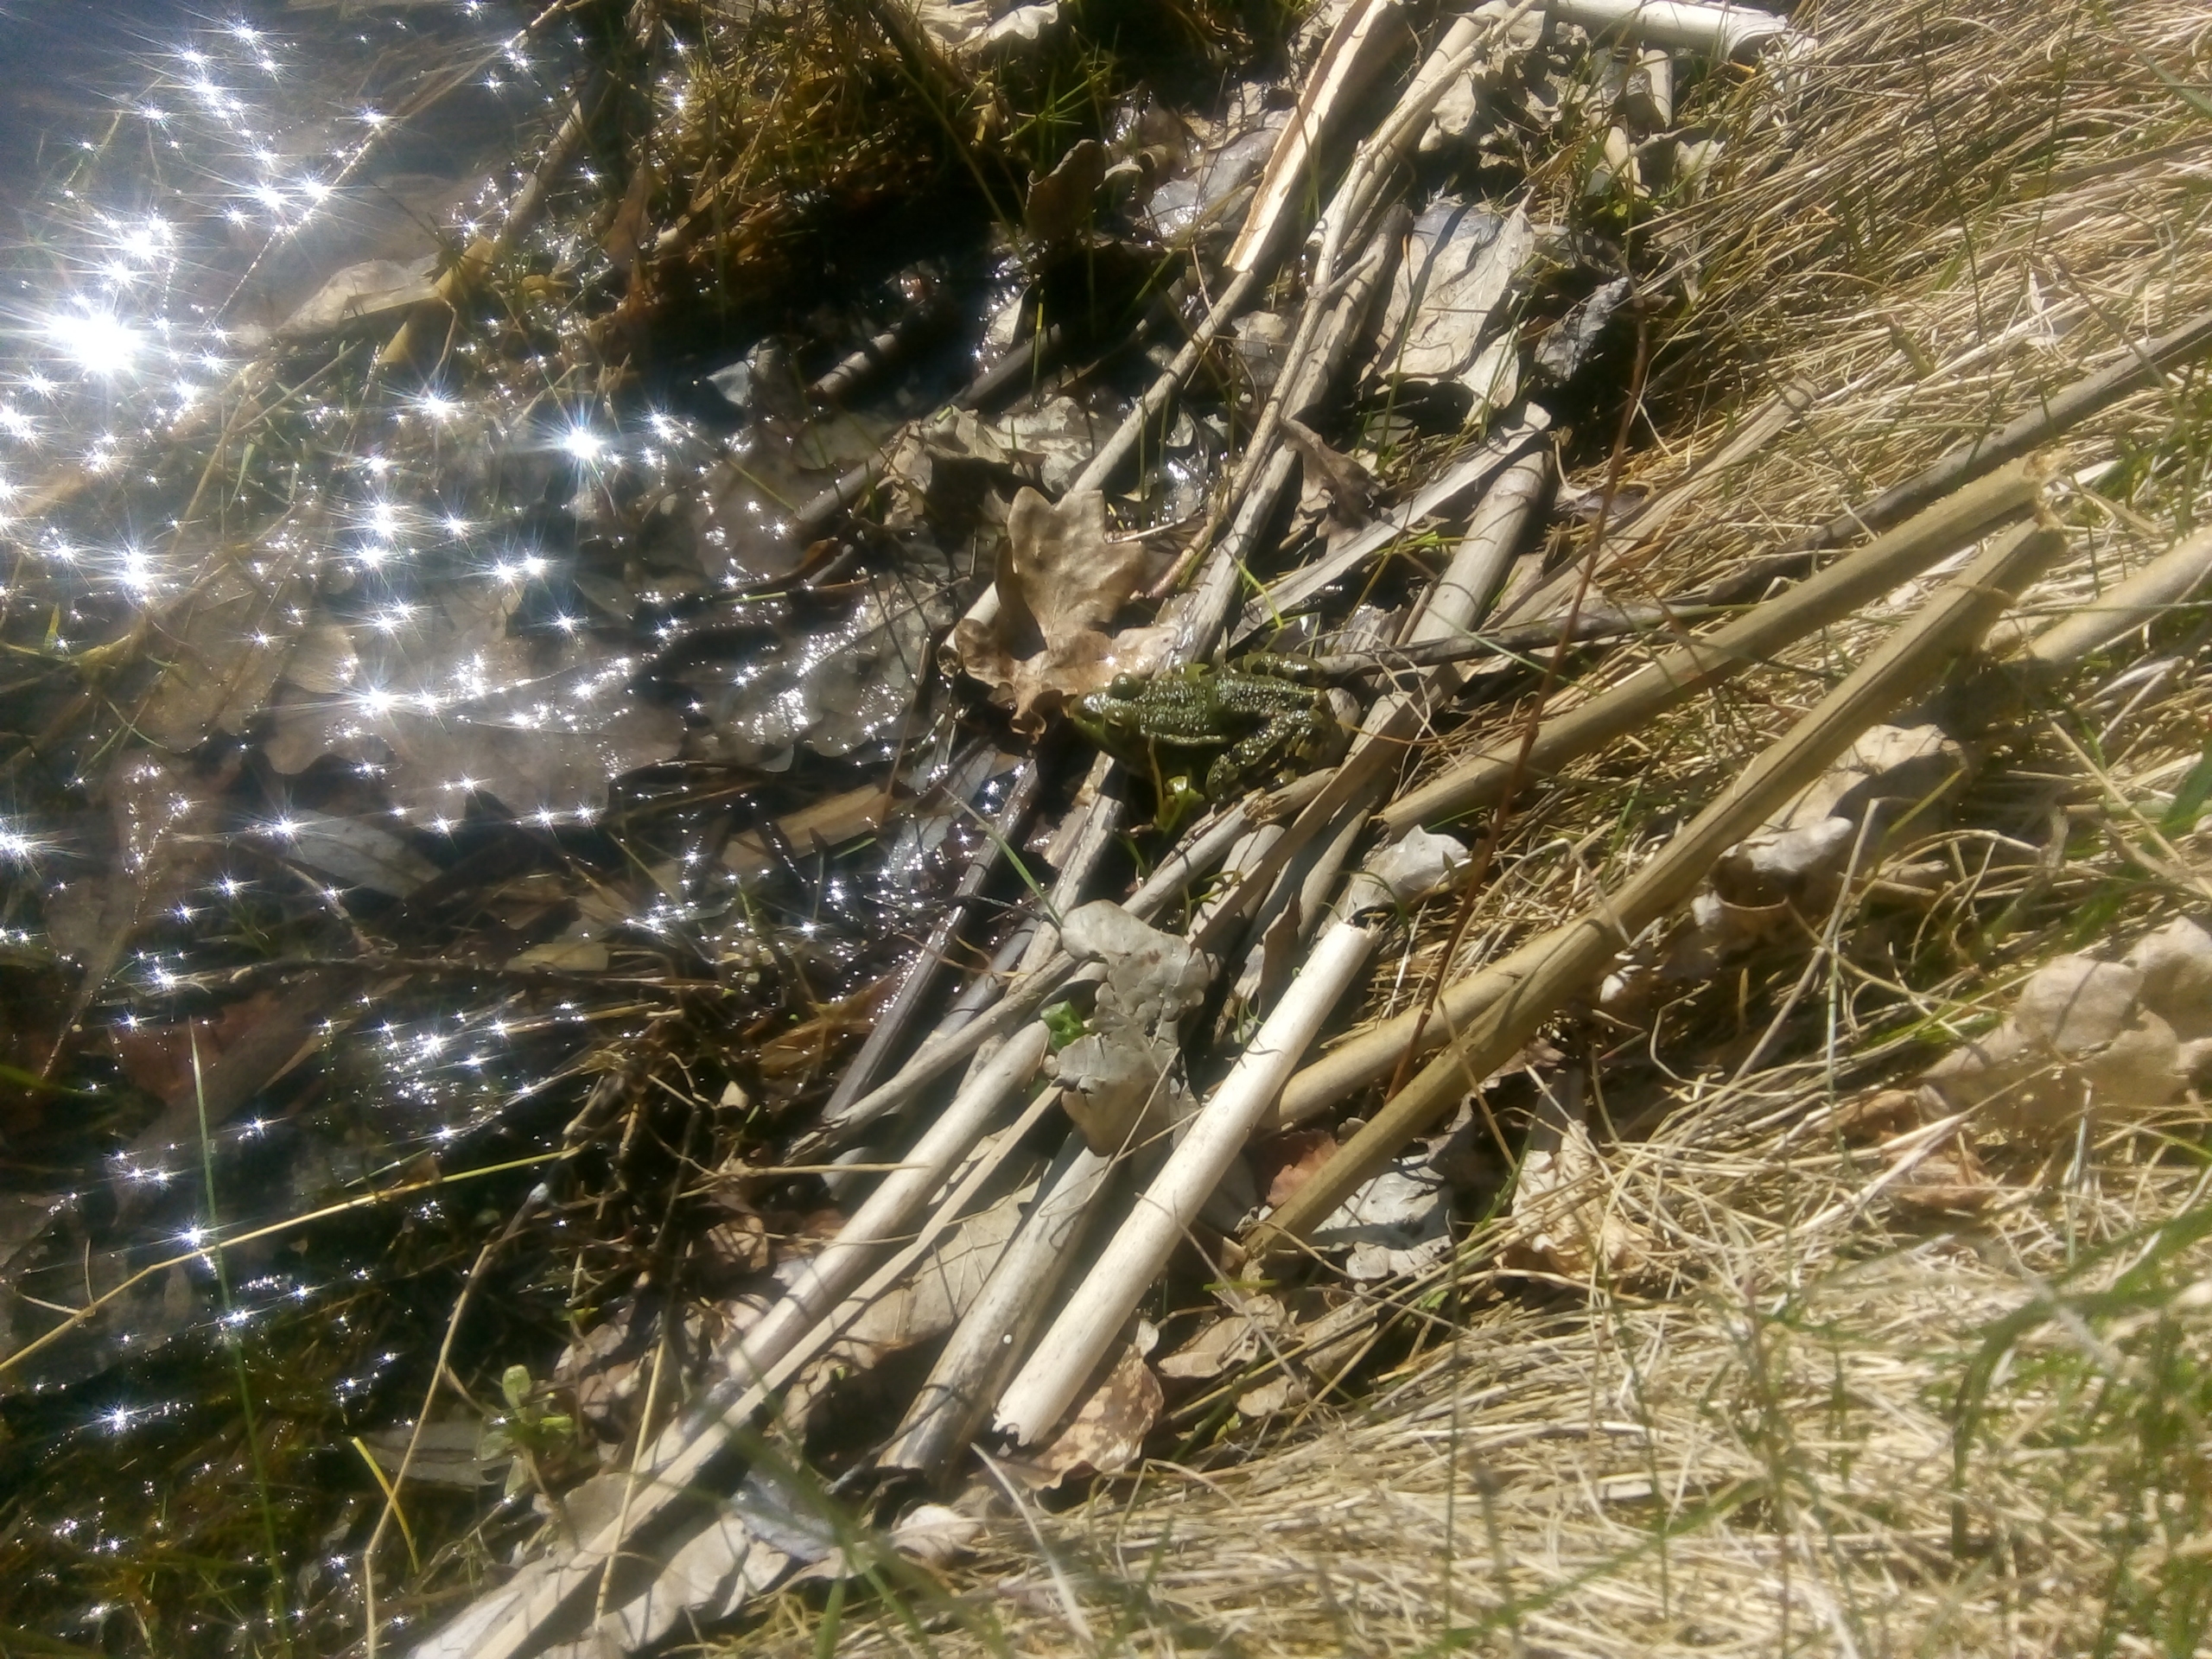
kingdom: Animalia
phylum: Chordata
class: Amphibia
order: Anura
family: Ranidae
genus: Pelophylax
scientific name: Pelophylax lessonae
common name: Grøn frø
